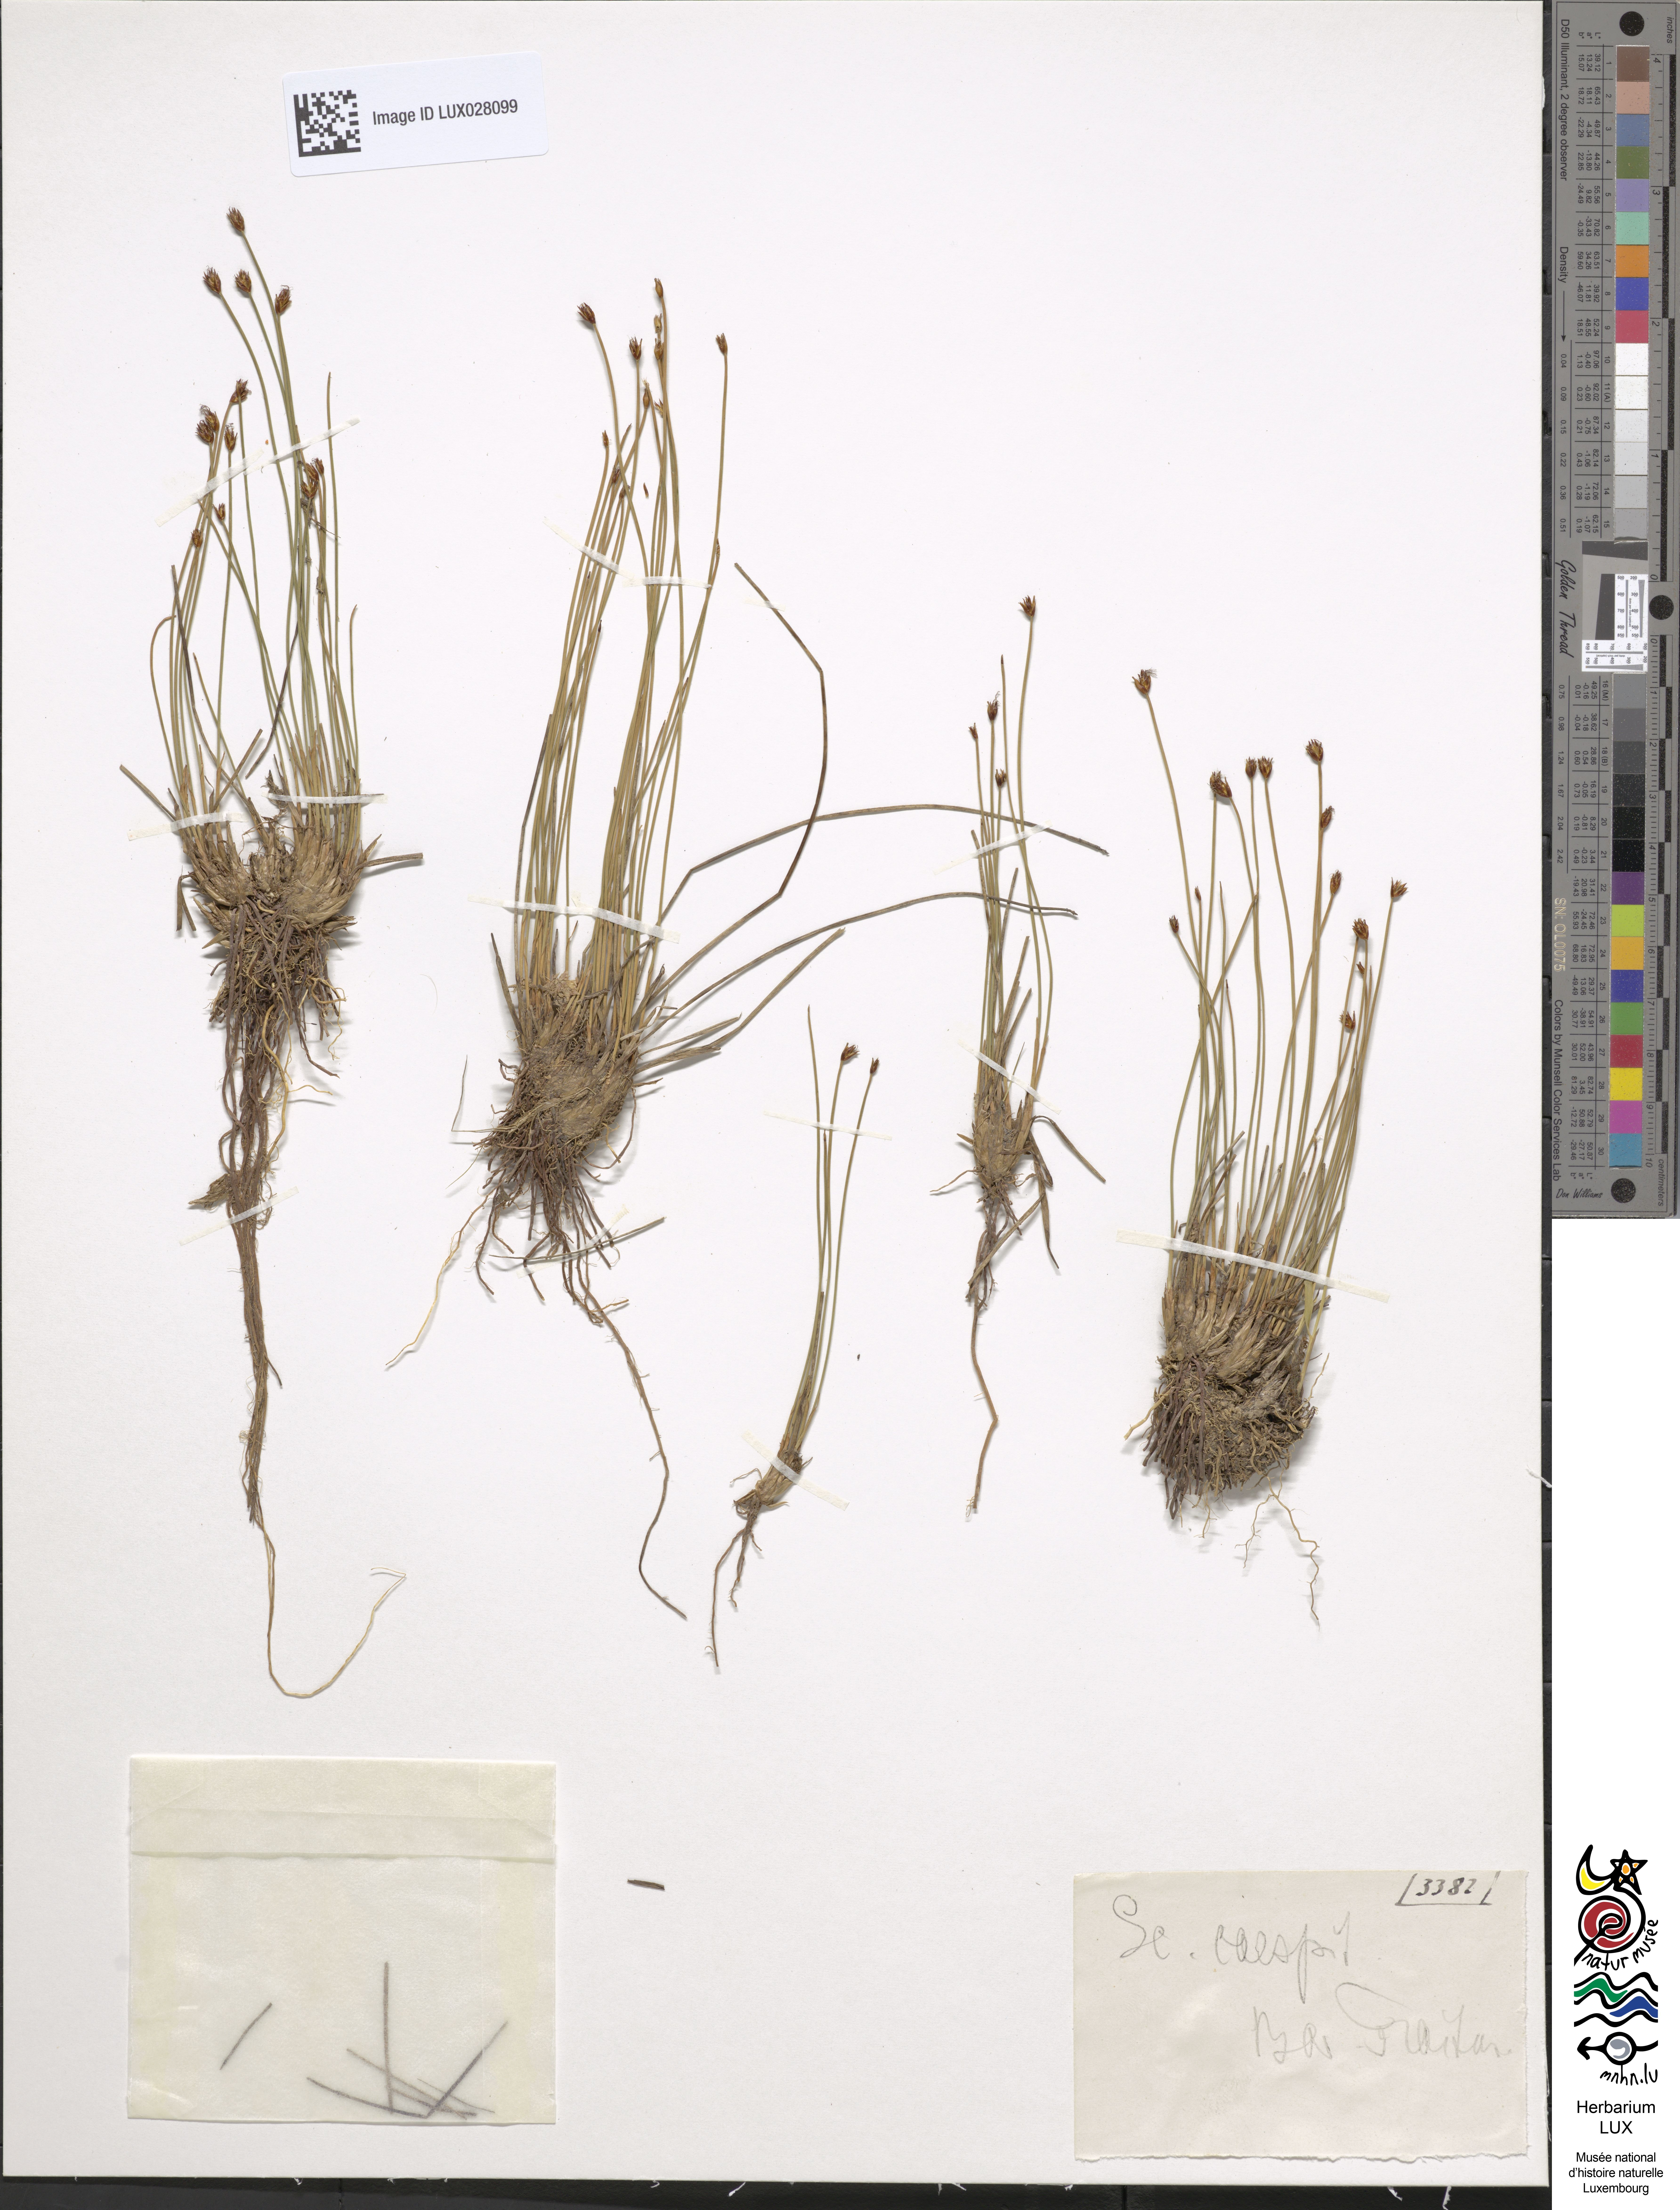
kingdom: Plantae
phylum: Tracheophyta
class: Liliopsida
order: Poales
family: Cyperaceae
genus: Trichophorum
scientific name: Trichophorum cespitosum
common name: Cespitose bulrush
